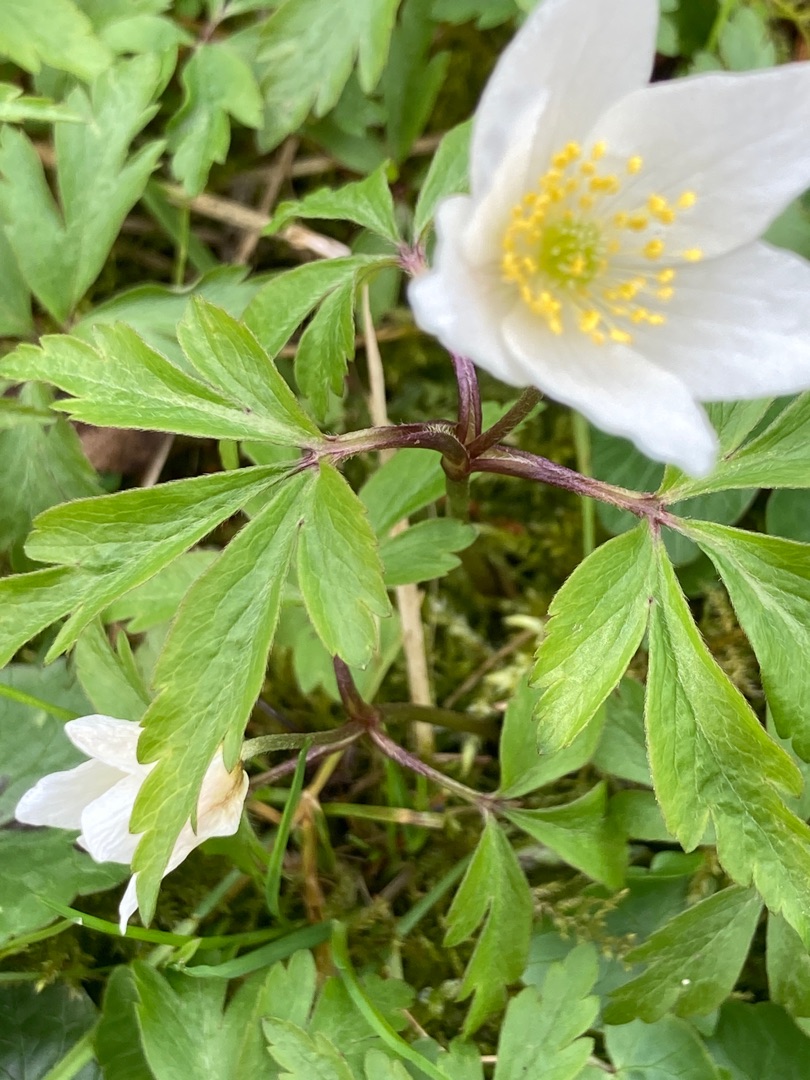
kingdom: Plantae
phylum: Tracheophyta
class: Magnoliopsida
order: Ranunculales
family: Ranunculaceae
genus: Anemone
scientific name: Anemone nemorosa
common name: Hvid anemone
